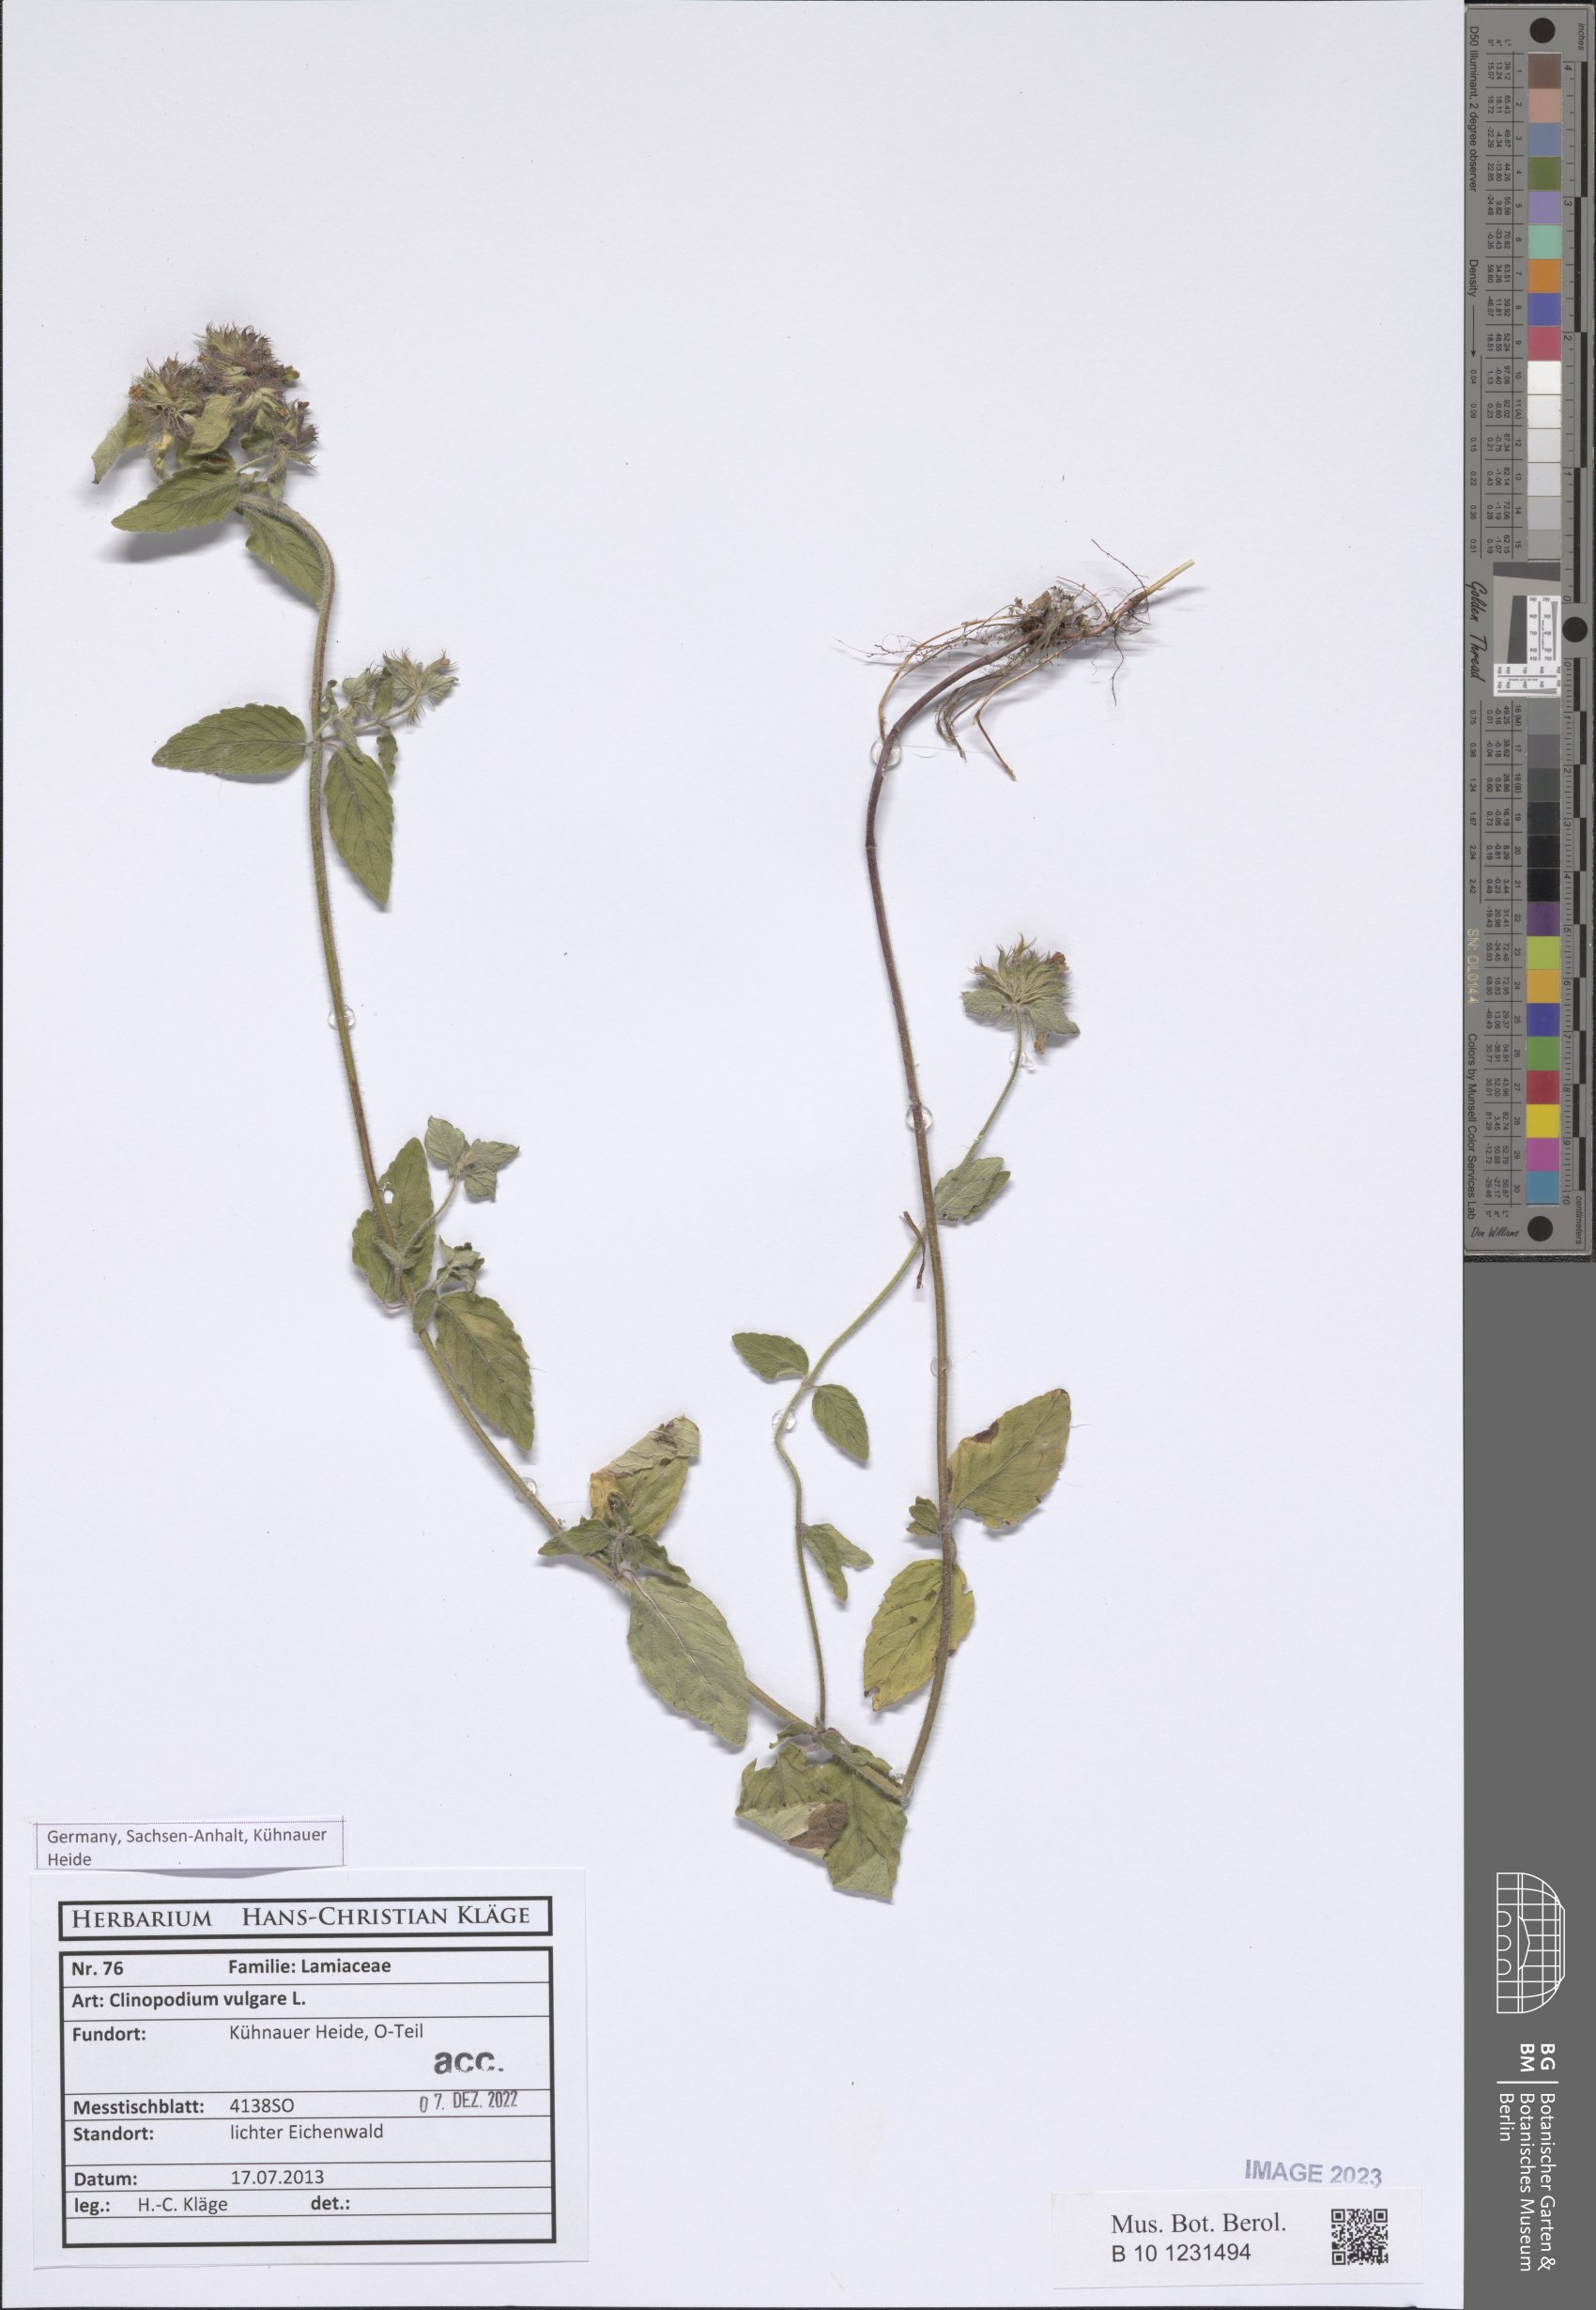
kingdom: Plantae
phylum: Tracheophyta
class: Magnoliopsida
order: Lamiales
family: Lamiaceae
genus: Clinopodium
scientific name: Clinopodium vulgare
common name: Wild basil
